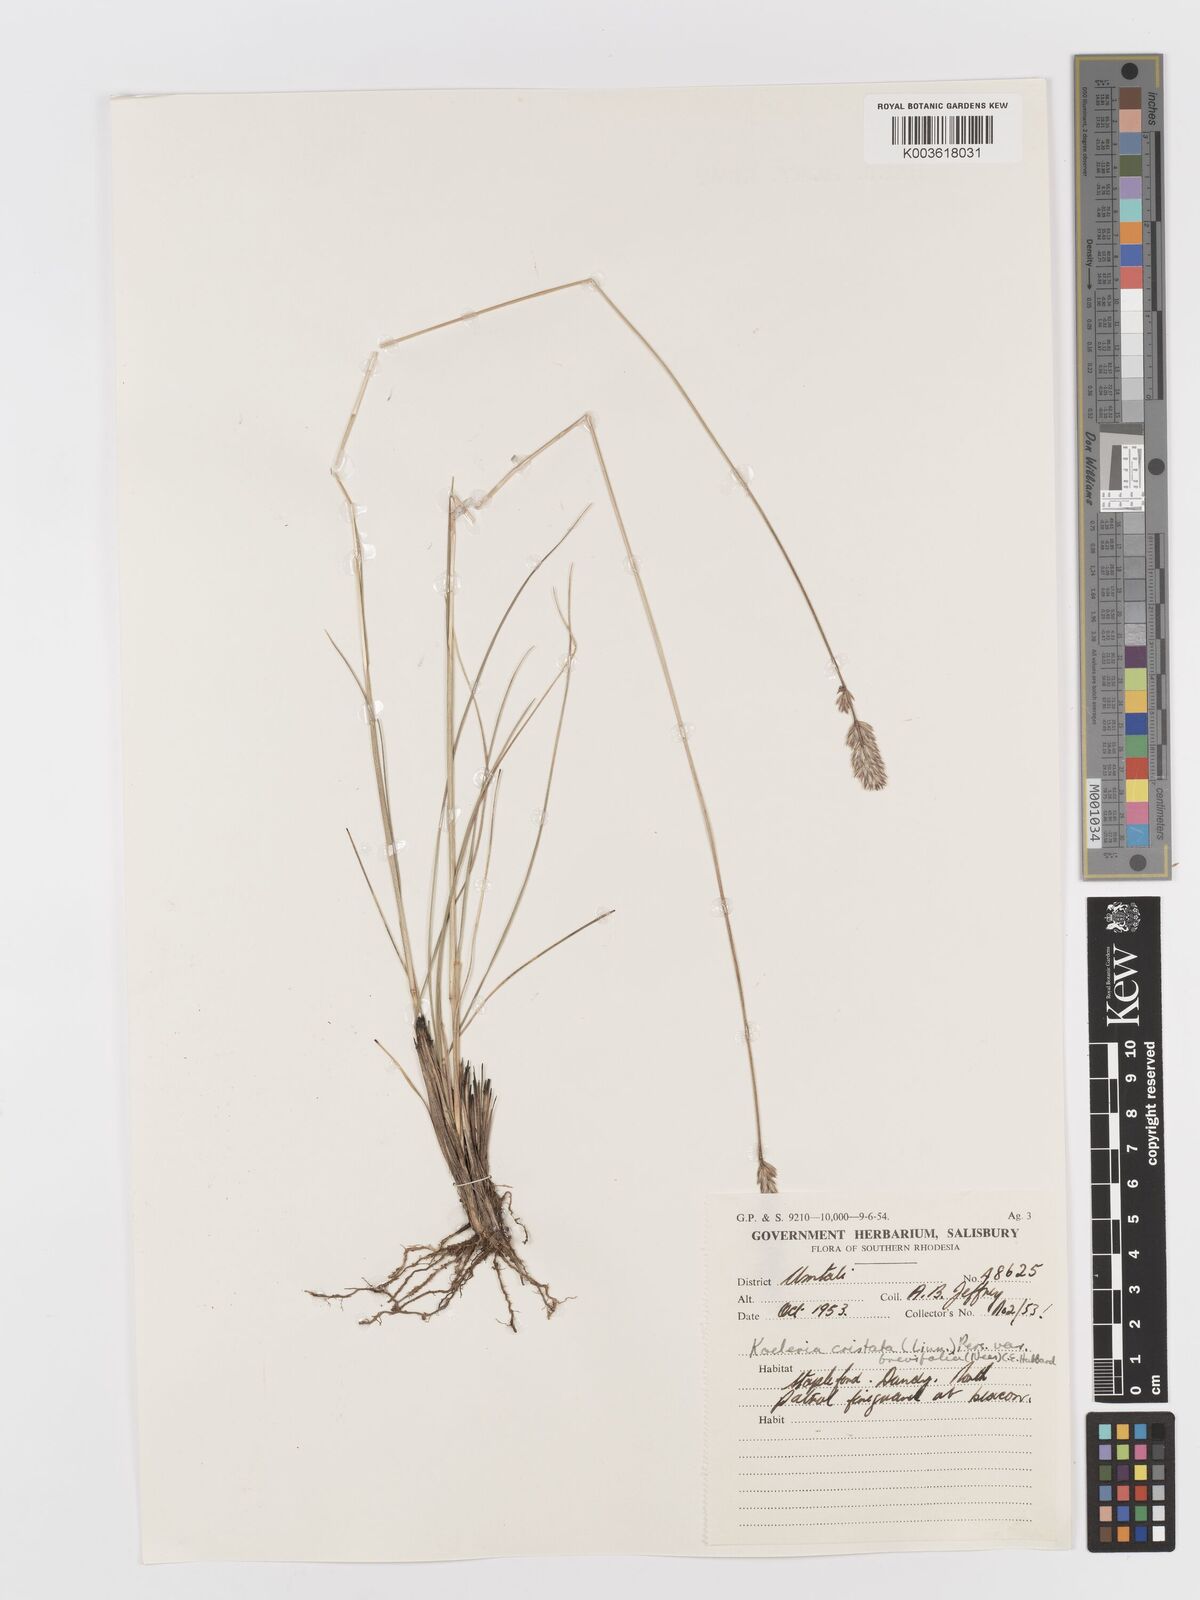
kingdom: Plantae
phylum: Tracheophyta
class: Liliopsida
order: Poales
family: Poaceae
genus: Koeleria
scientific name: Koeleria capensis
